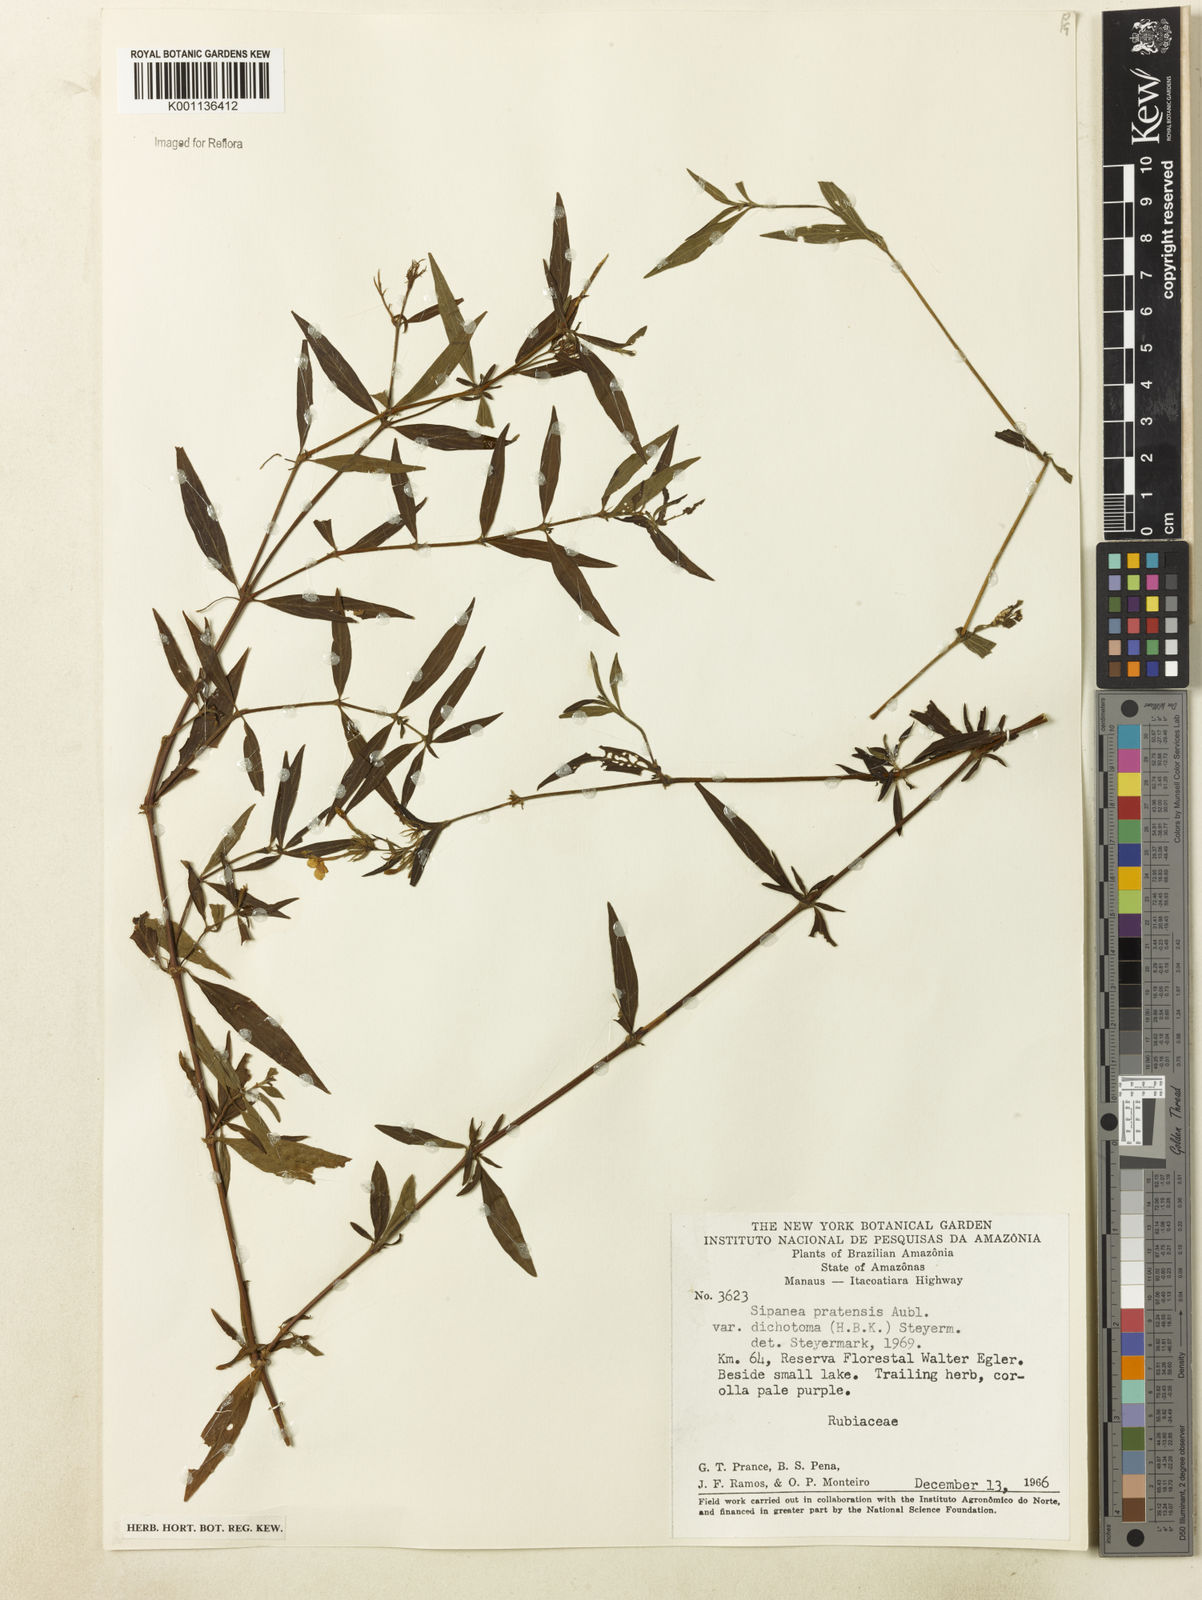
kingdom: Plantae
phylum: Tracheophyta
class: Magnoliopsida
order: Gentianales
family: Rubiaceae
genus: Sipanea
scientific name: Sipanea pratensis
